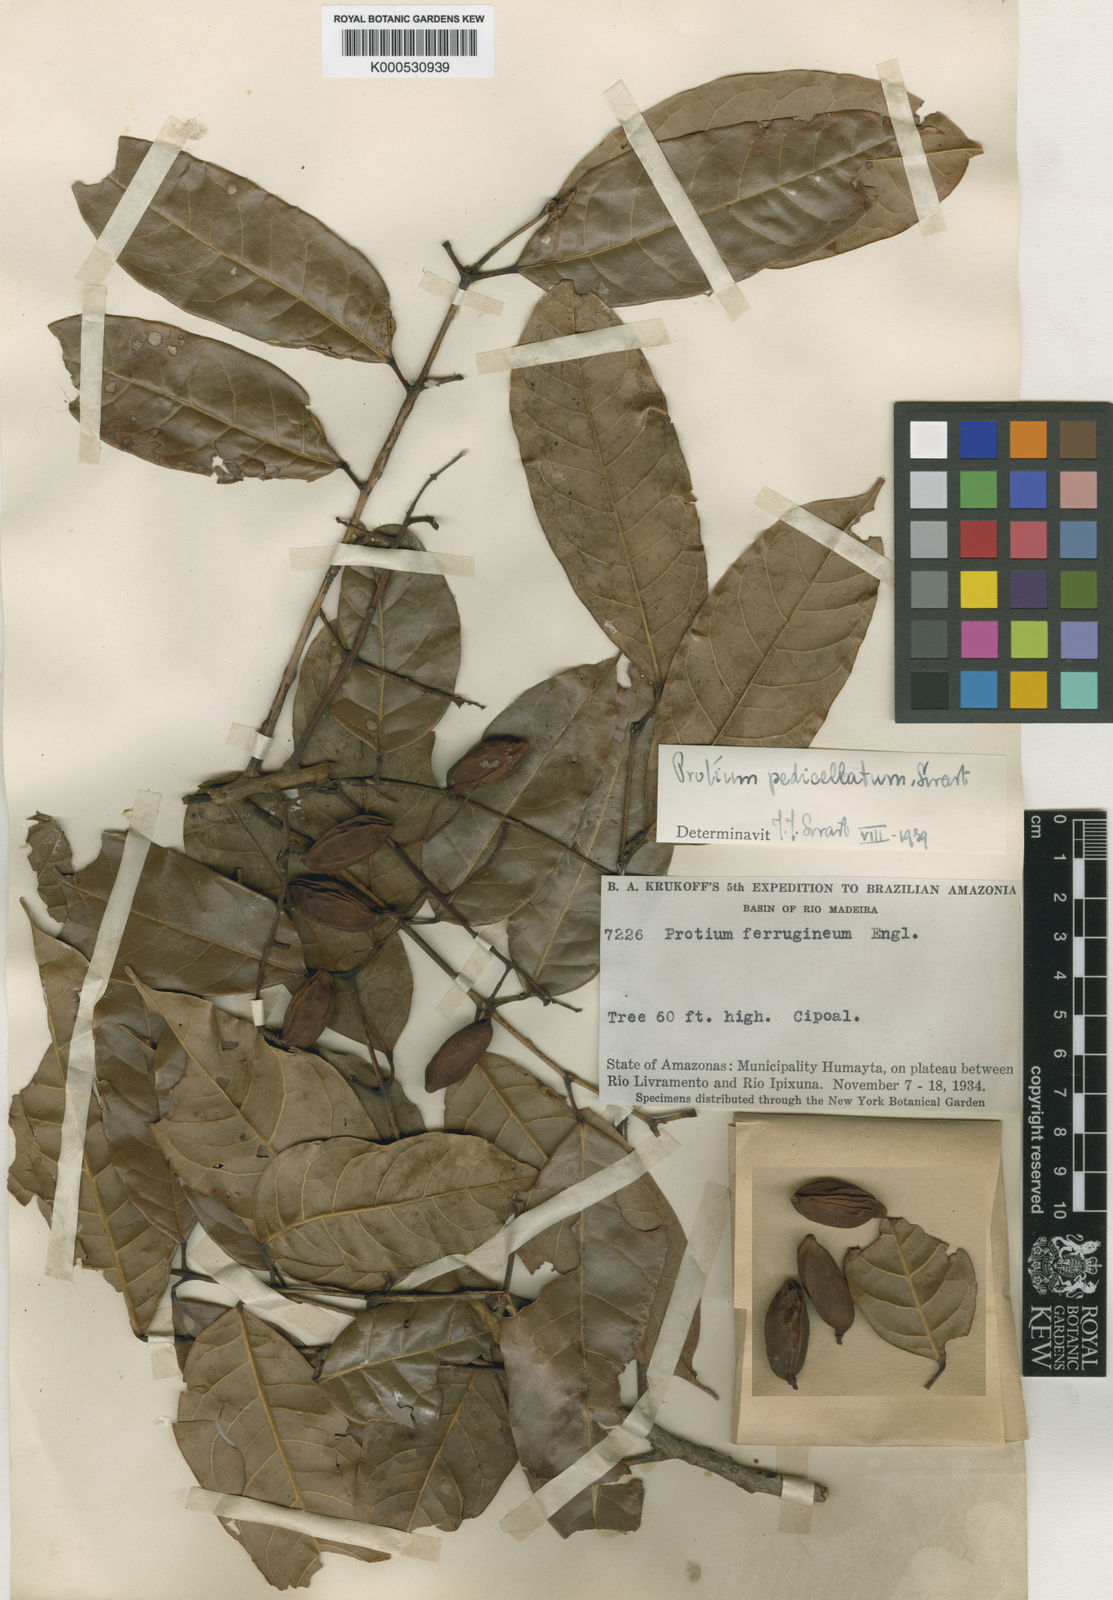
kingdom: Plantae
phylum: Tracheophyta
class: Magnoliopsida
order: Sapindales
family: Burseraceae
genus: Protium
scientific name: Protium ferrugineum
